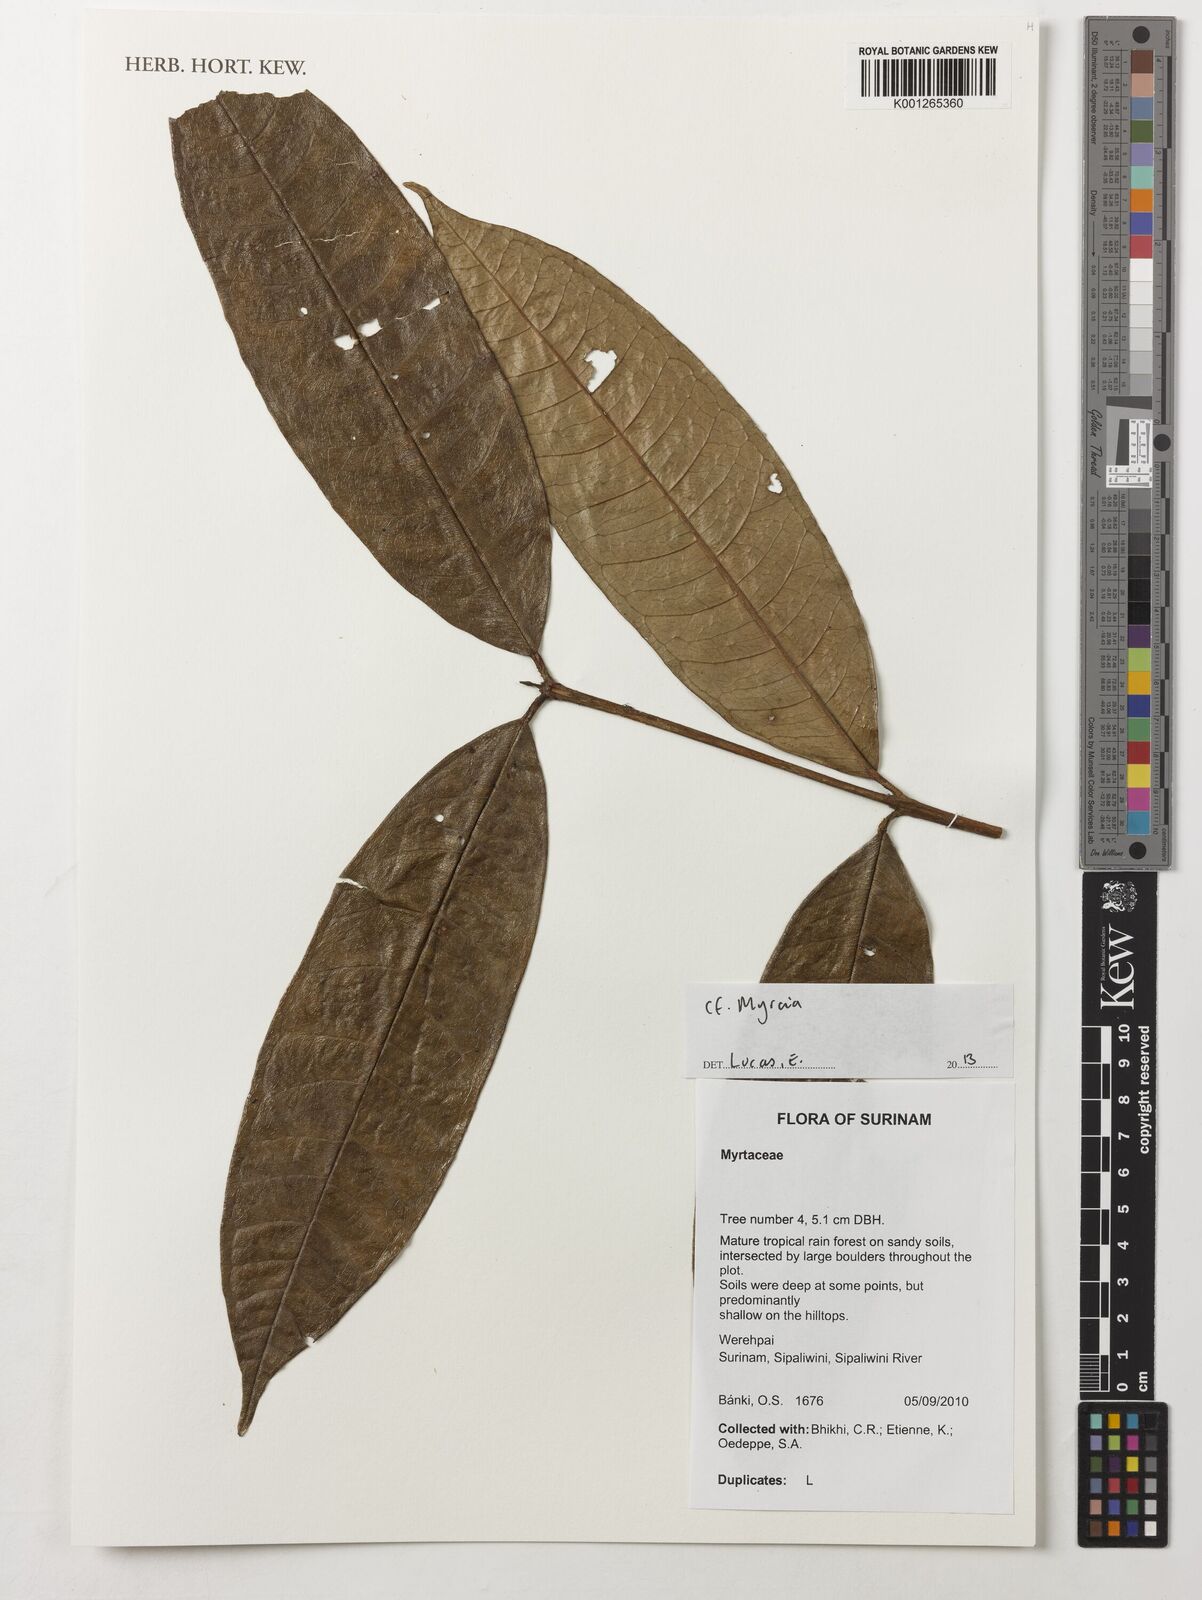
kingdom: Plantae
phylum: Tracheophyta
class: Magnoliopsida
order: Myrtales
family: Myrtaceae
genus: Myrcia
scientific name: Myrcia
